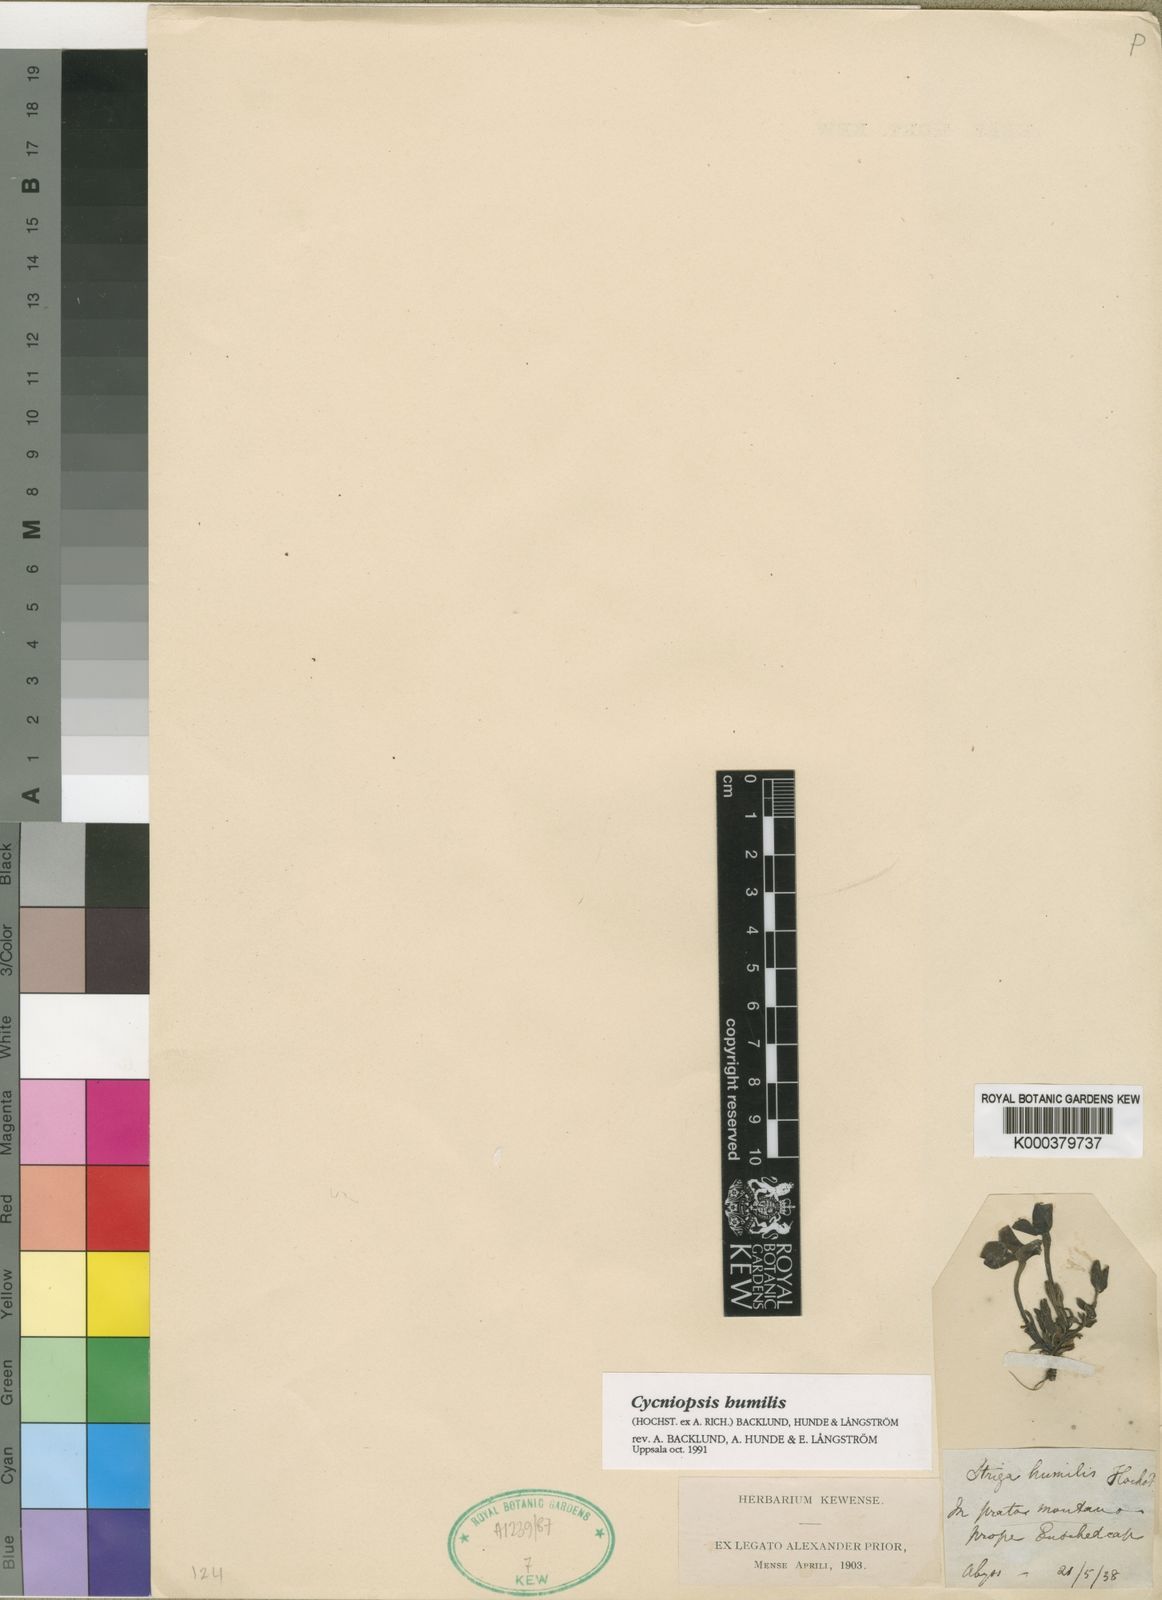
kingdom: Plantae
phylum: Tracheophyta
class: Magnoliopsida
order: Lamiales
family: Orobanchaceae
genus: Striga
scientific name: Striga
